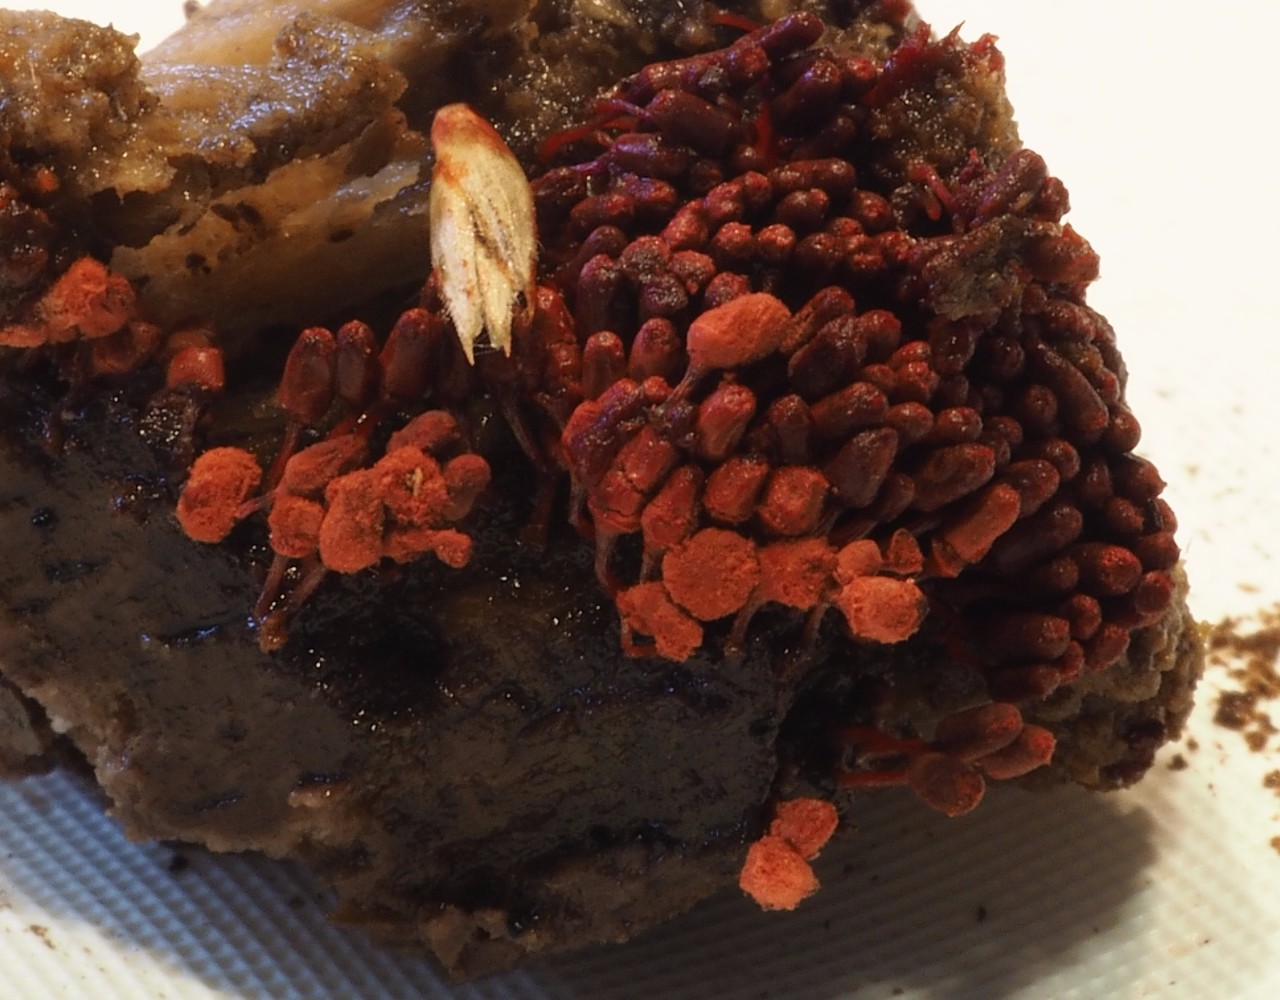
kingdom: Protozoa
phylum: Mycetozoa
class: Myxomycetes
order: Trichiales
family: Arcyriaceae
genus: Arcyria
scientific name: Arcyria denudata
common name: karminrød skålsvøb
